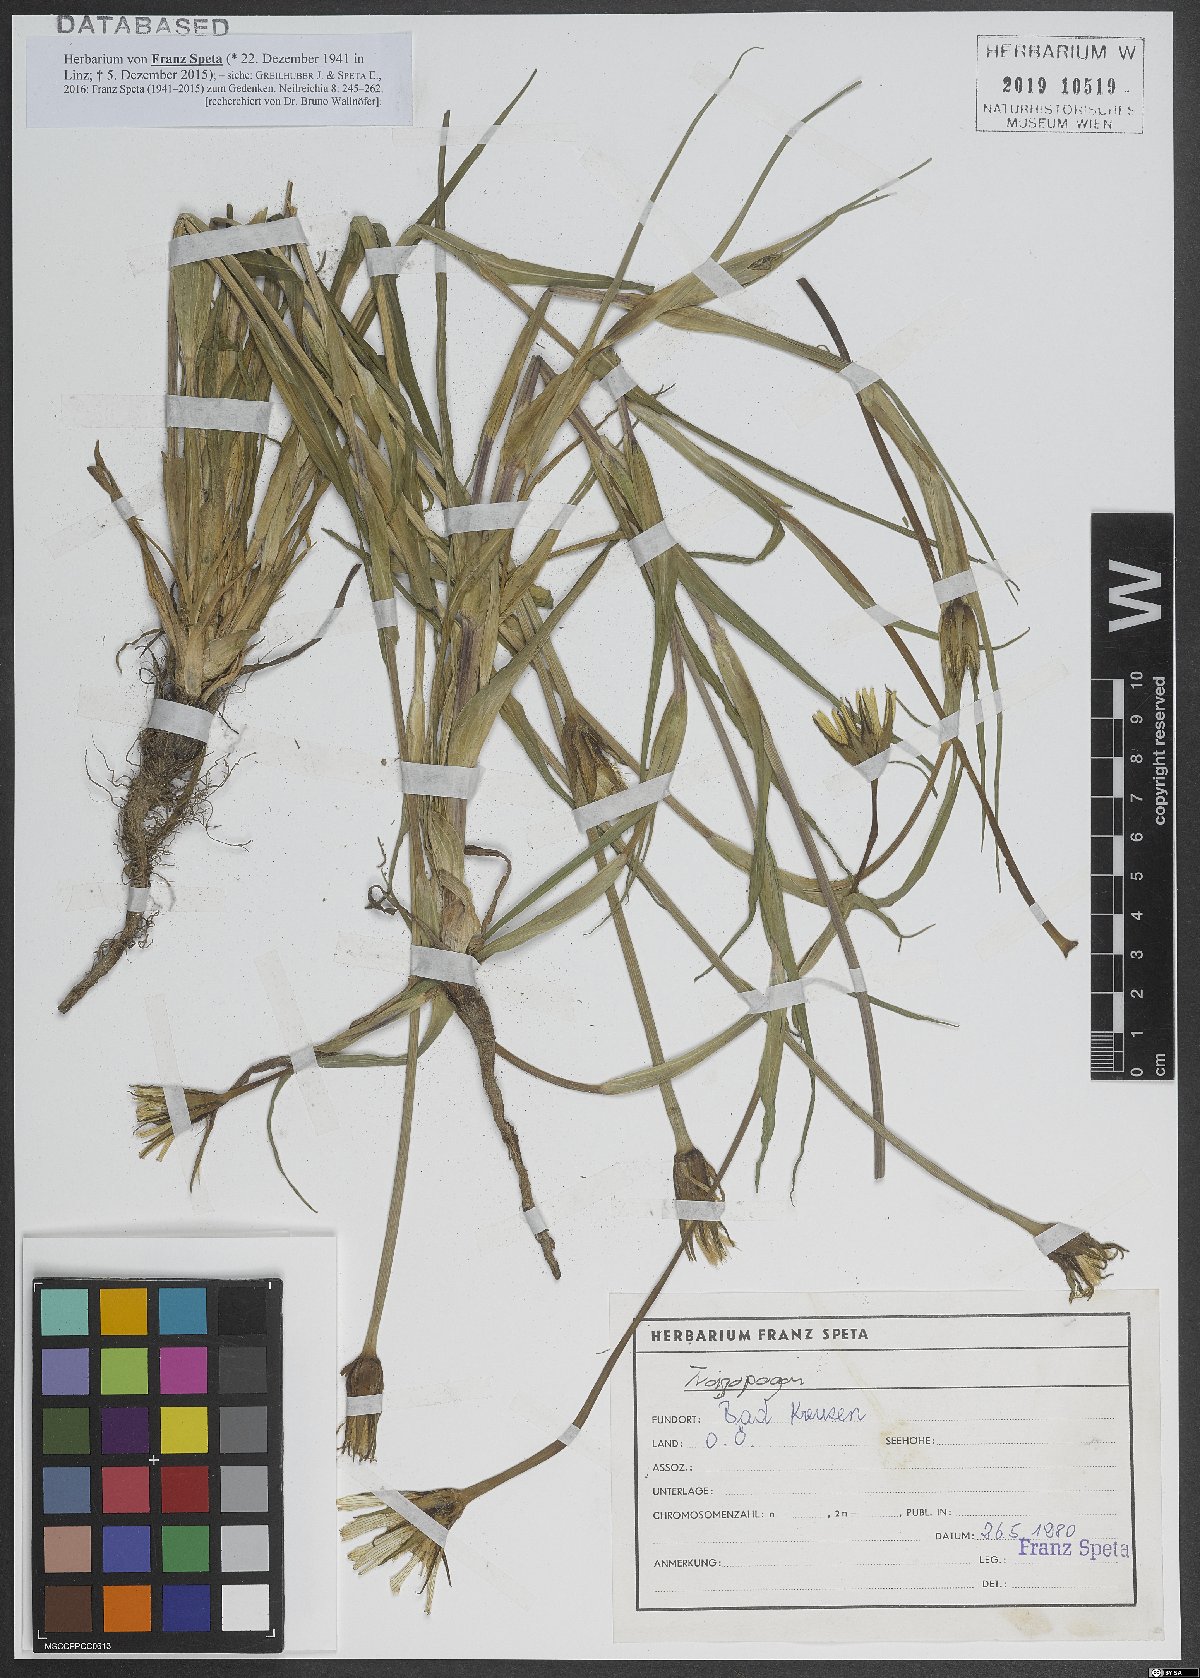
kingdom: Plantae
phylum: Tracheophyta
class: Magnoliopsida
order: Asterales
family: Asteraceae
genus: Tragopogon
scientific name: Tragopogon
